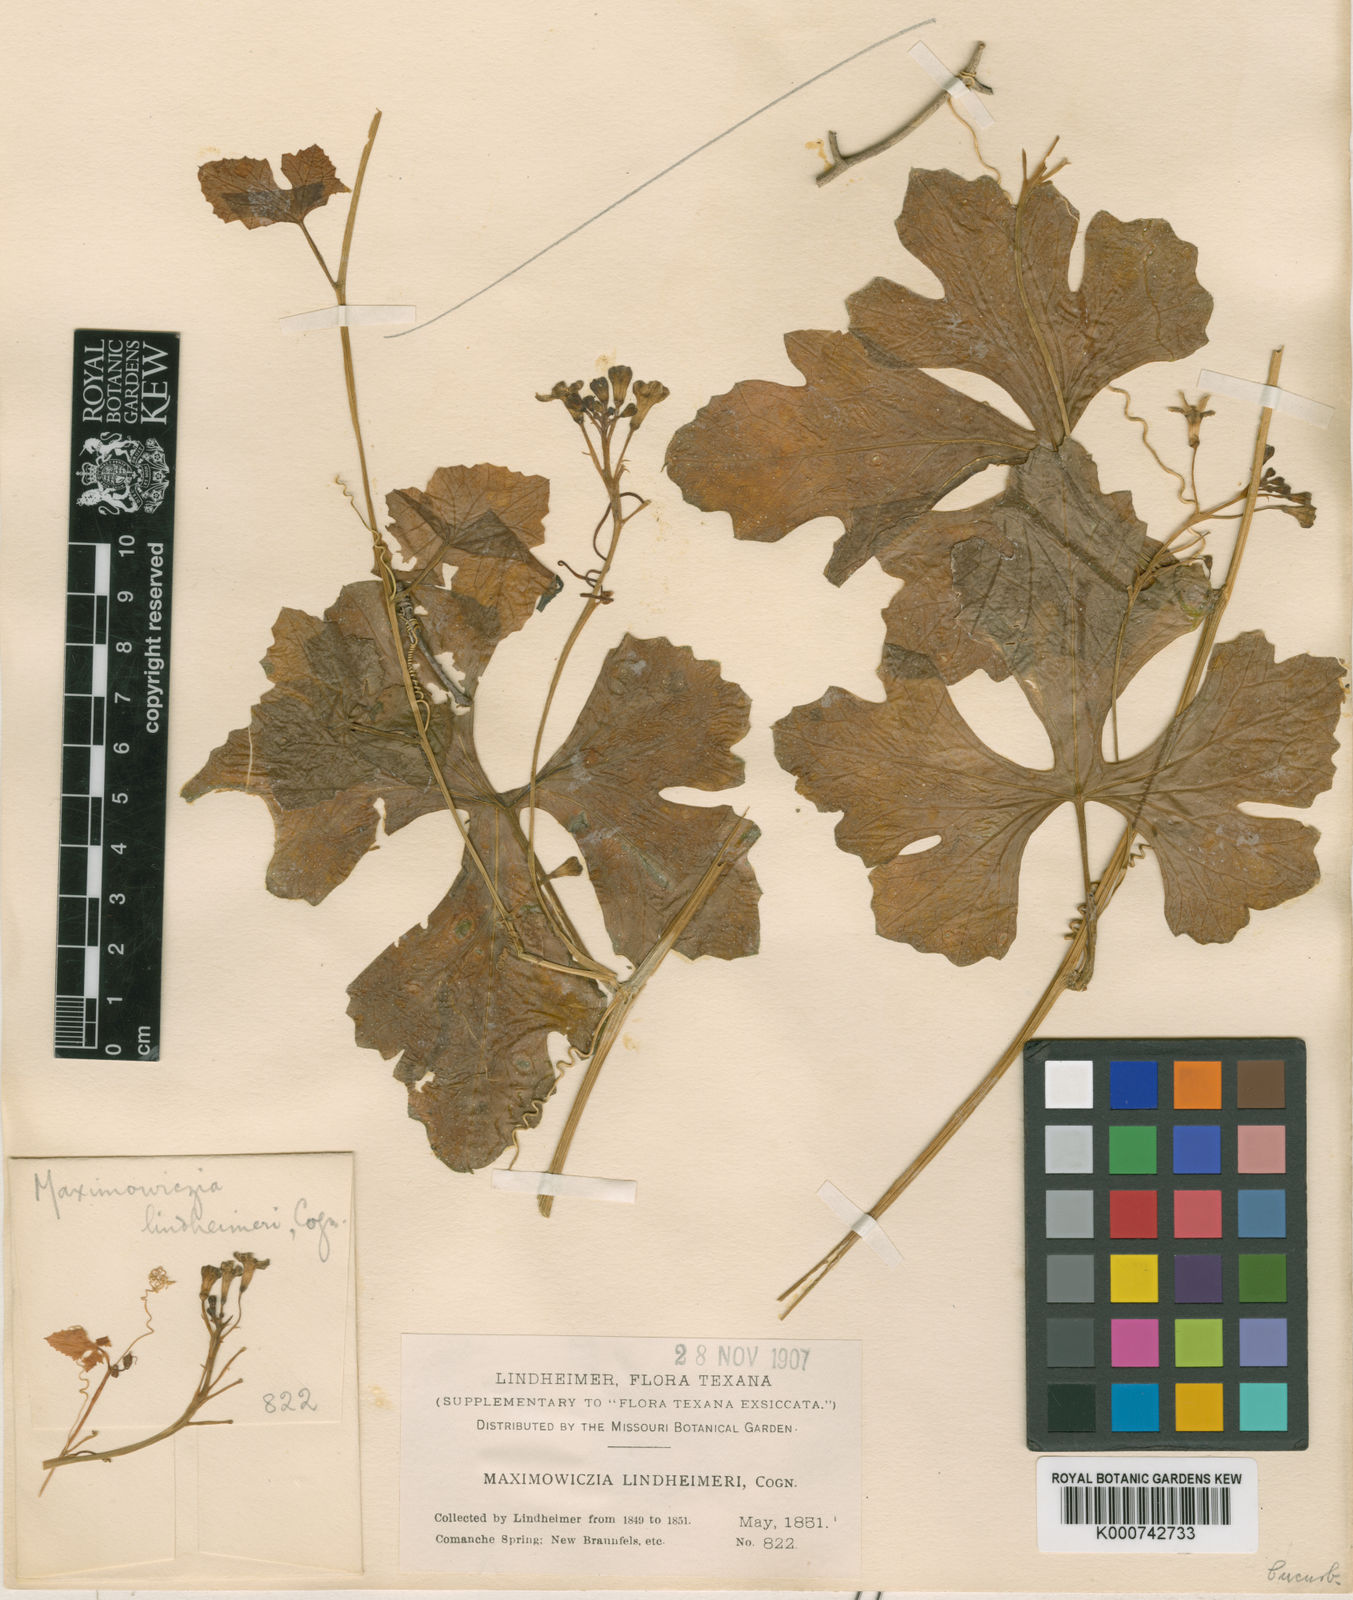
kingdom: Plantae
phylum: Tracheophyta
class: Magnoliopsida
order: Cucurbitales
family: Cucurbitaceae
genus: Ibervillea
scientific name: Ibervillea lindheimeri
